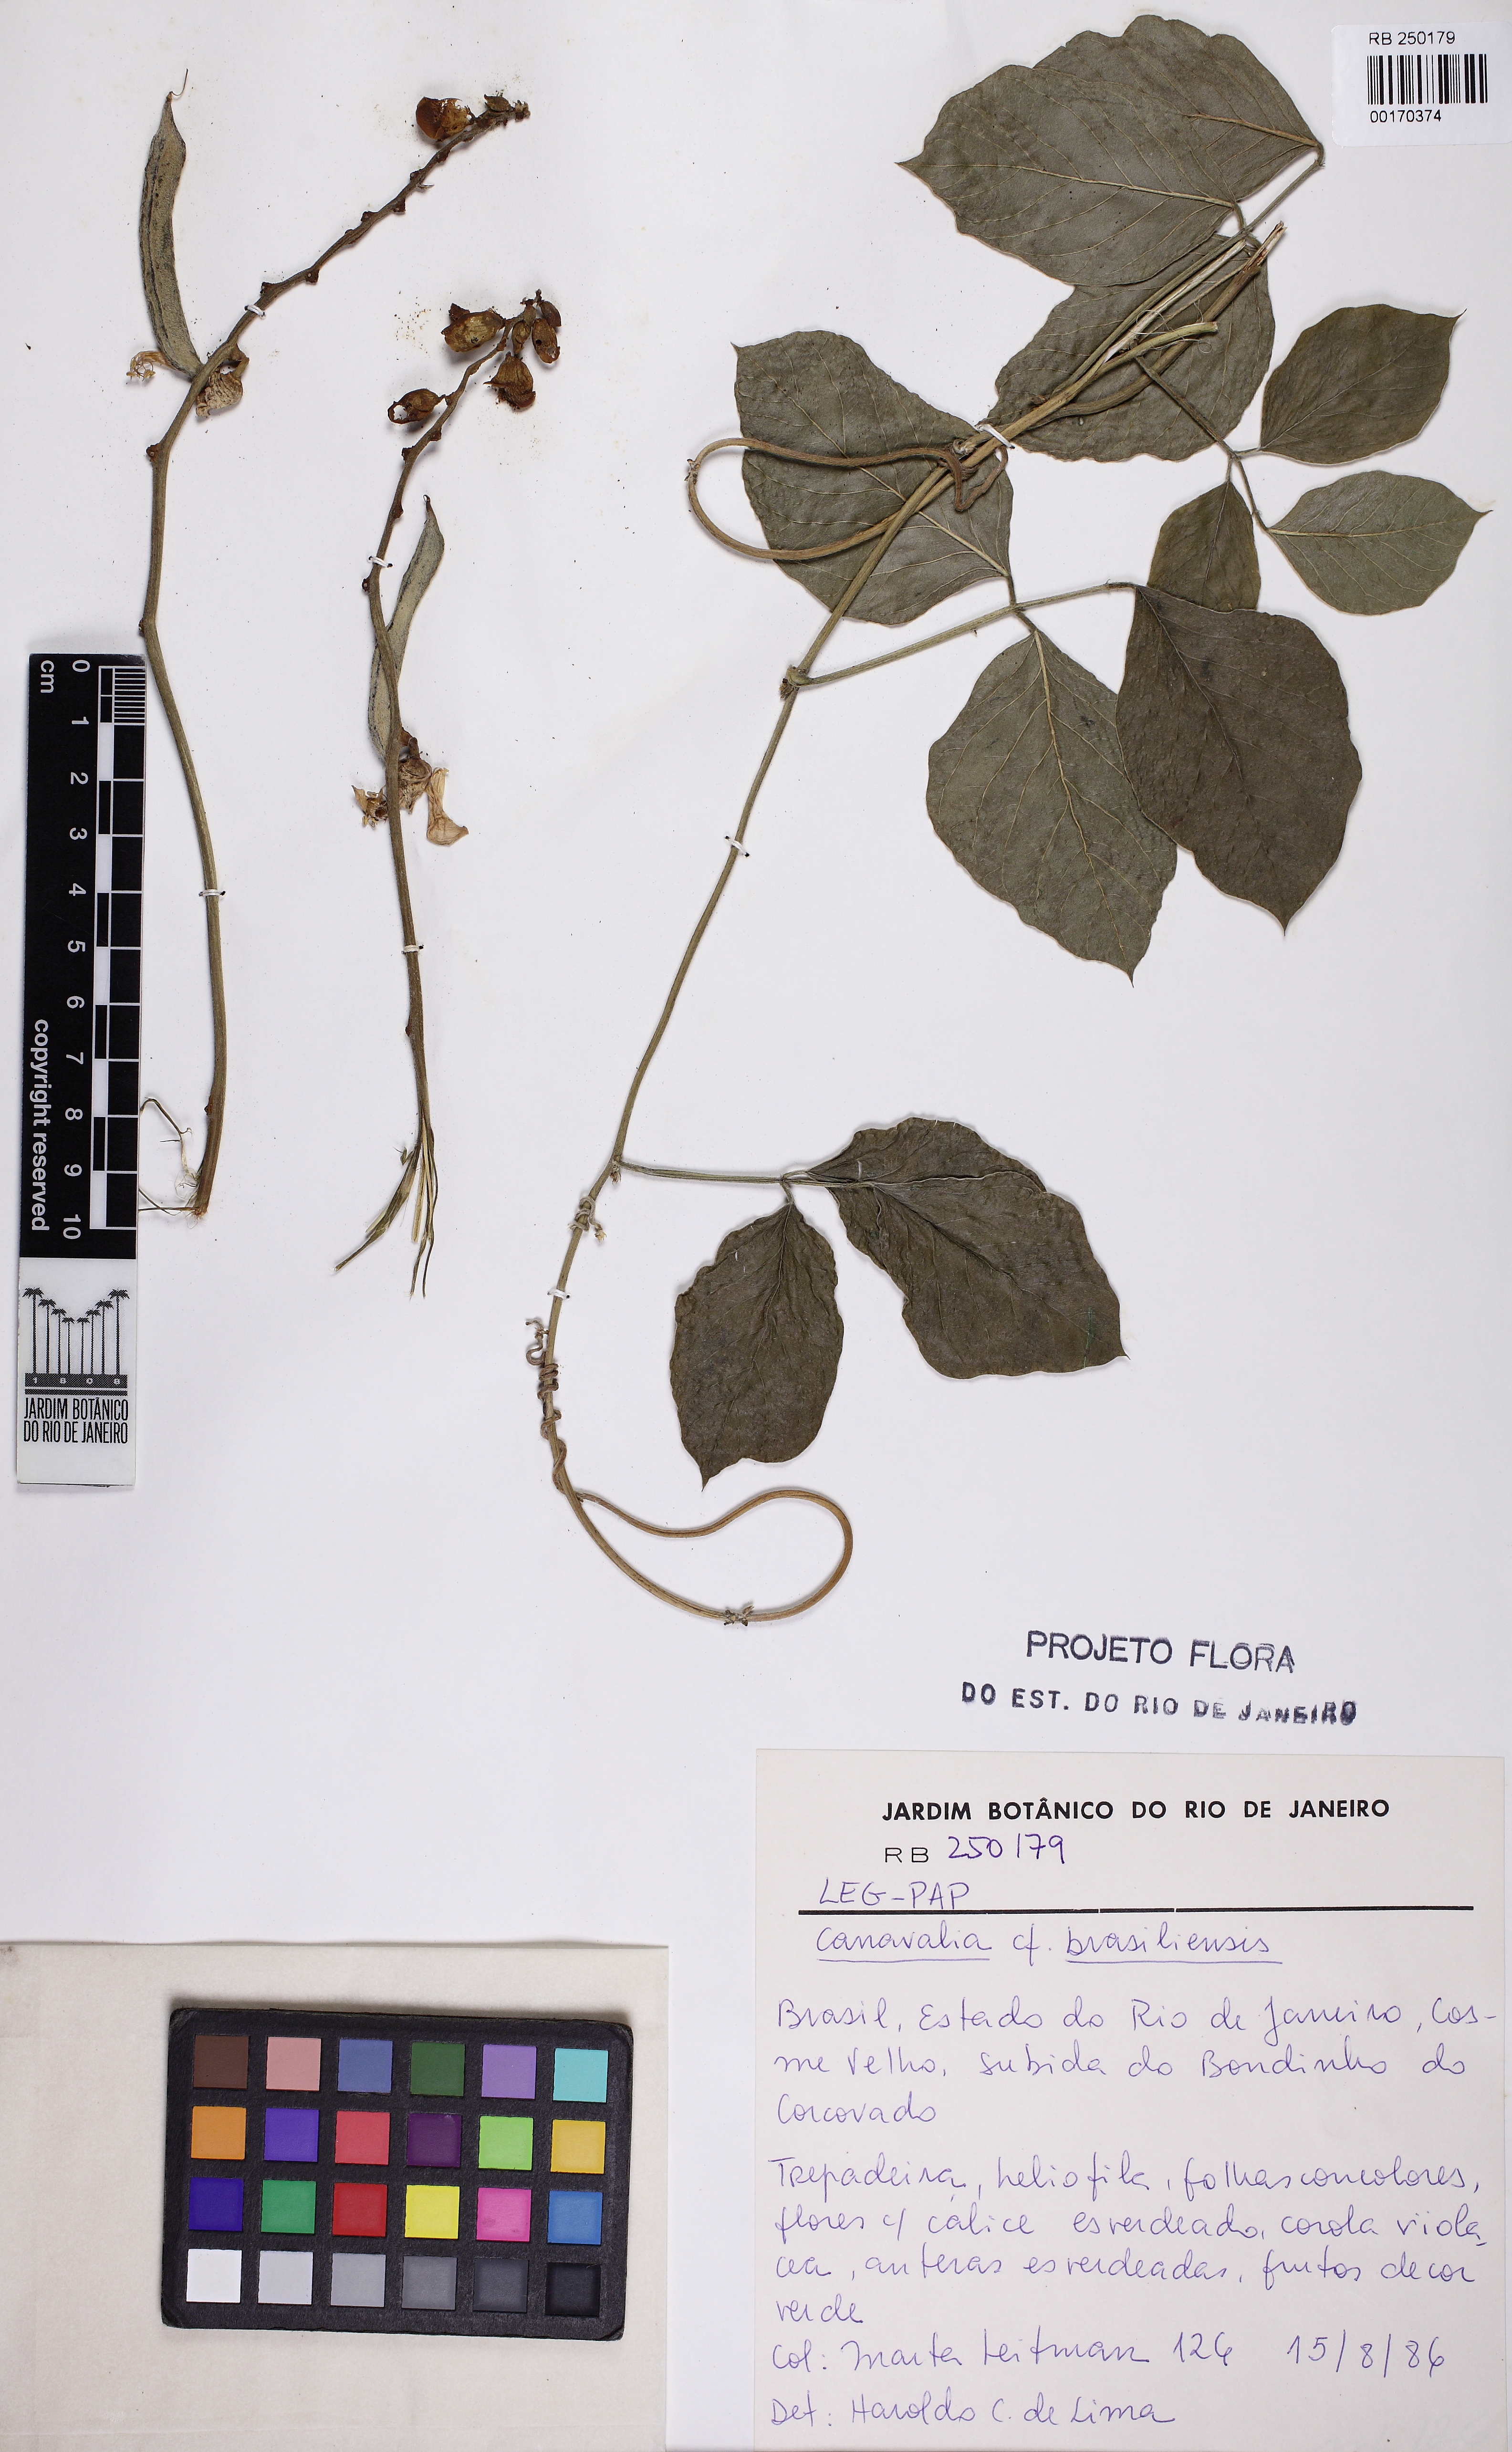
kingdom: Plantae
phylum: Tracheophyta
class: Magnoliopsida
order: Fabales
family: Fabaceae
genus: Canavalia
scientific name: Canavalia brasiliensis
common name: Barbicou-bean
